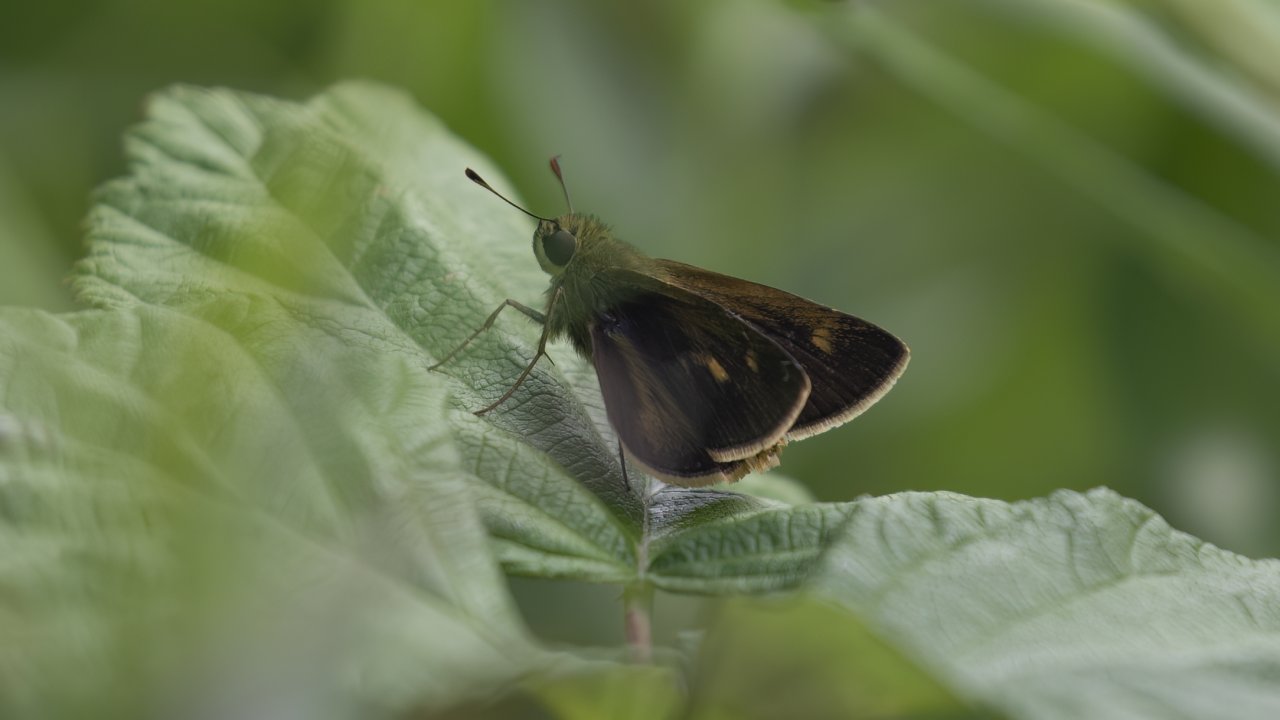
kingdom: Animalia
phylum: Arthropoda
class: Insecta
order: Lepidoptera
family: Hesperiidae
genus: Polites
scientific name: Polites themistocles
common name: Tawny-edged Skipper
